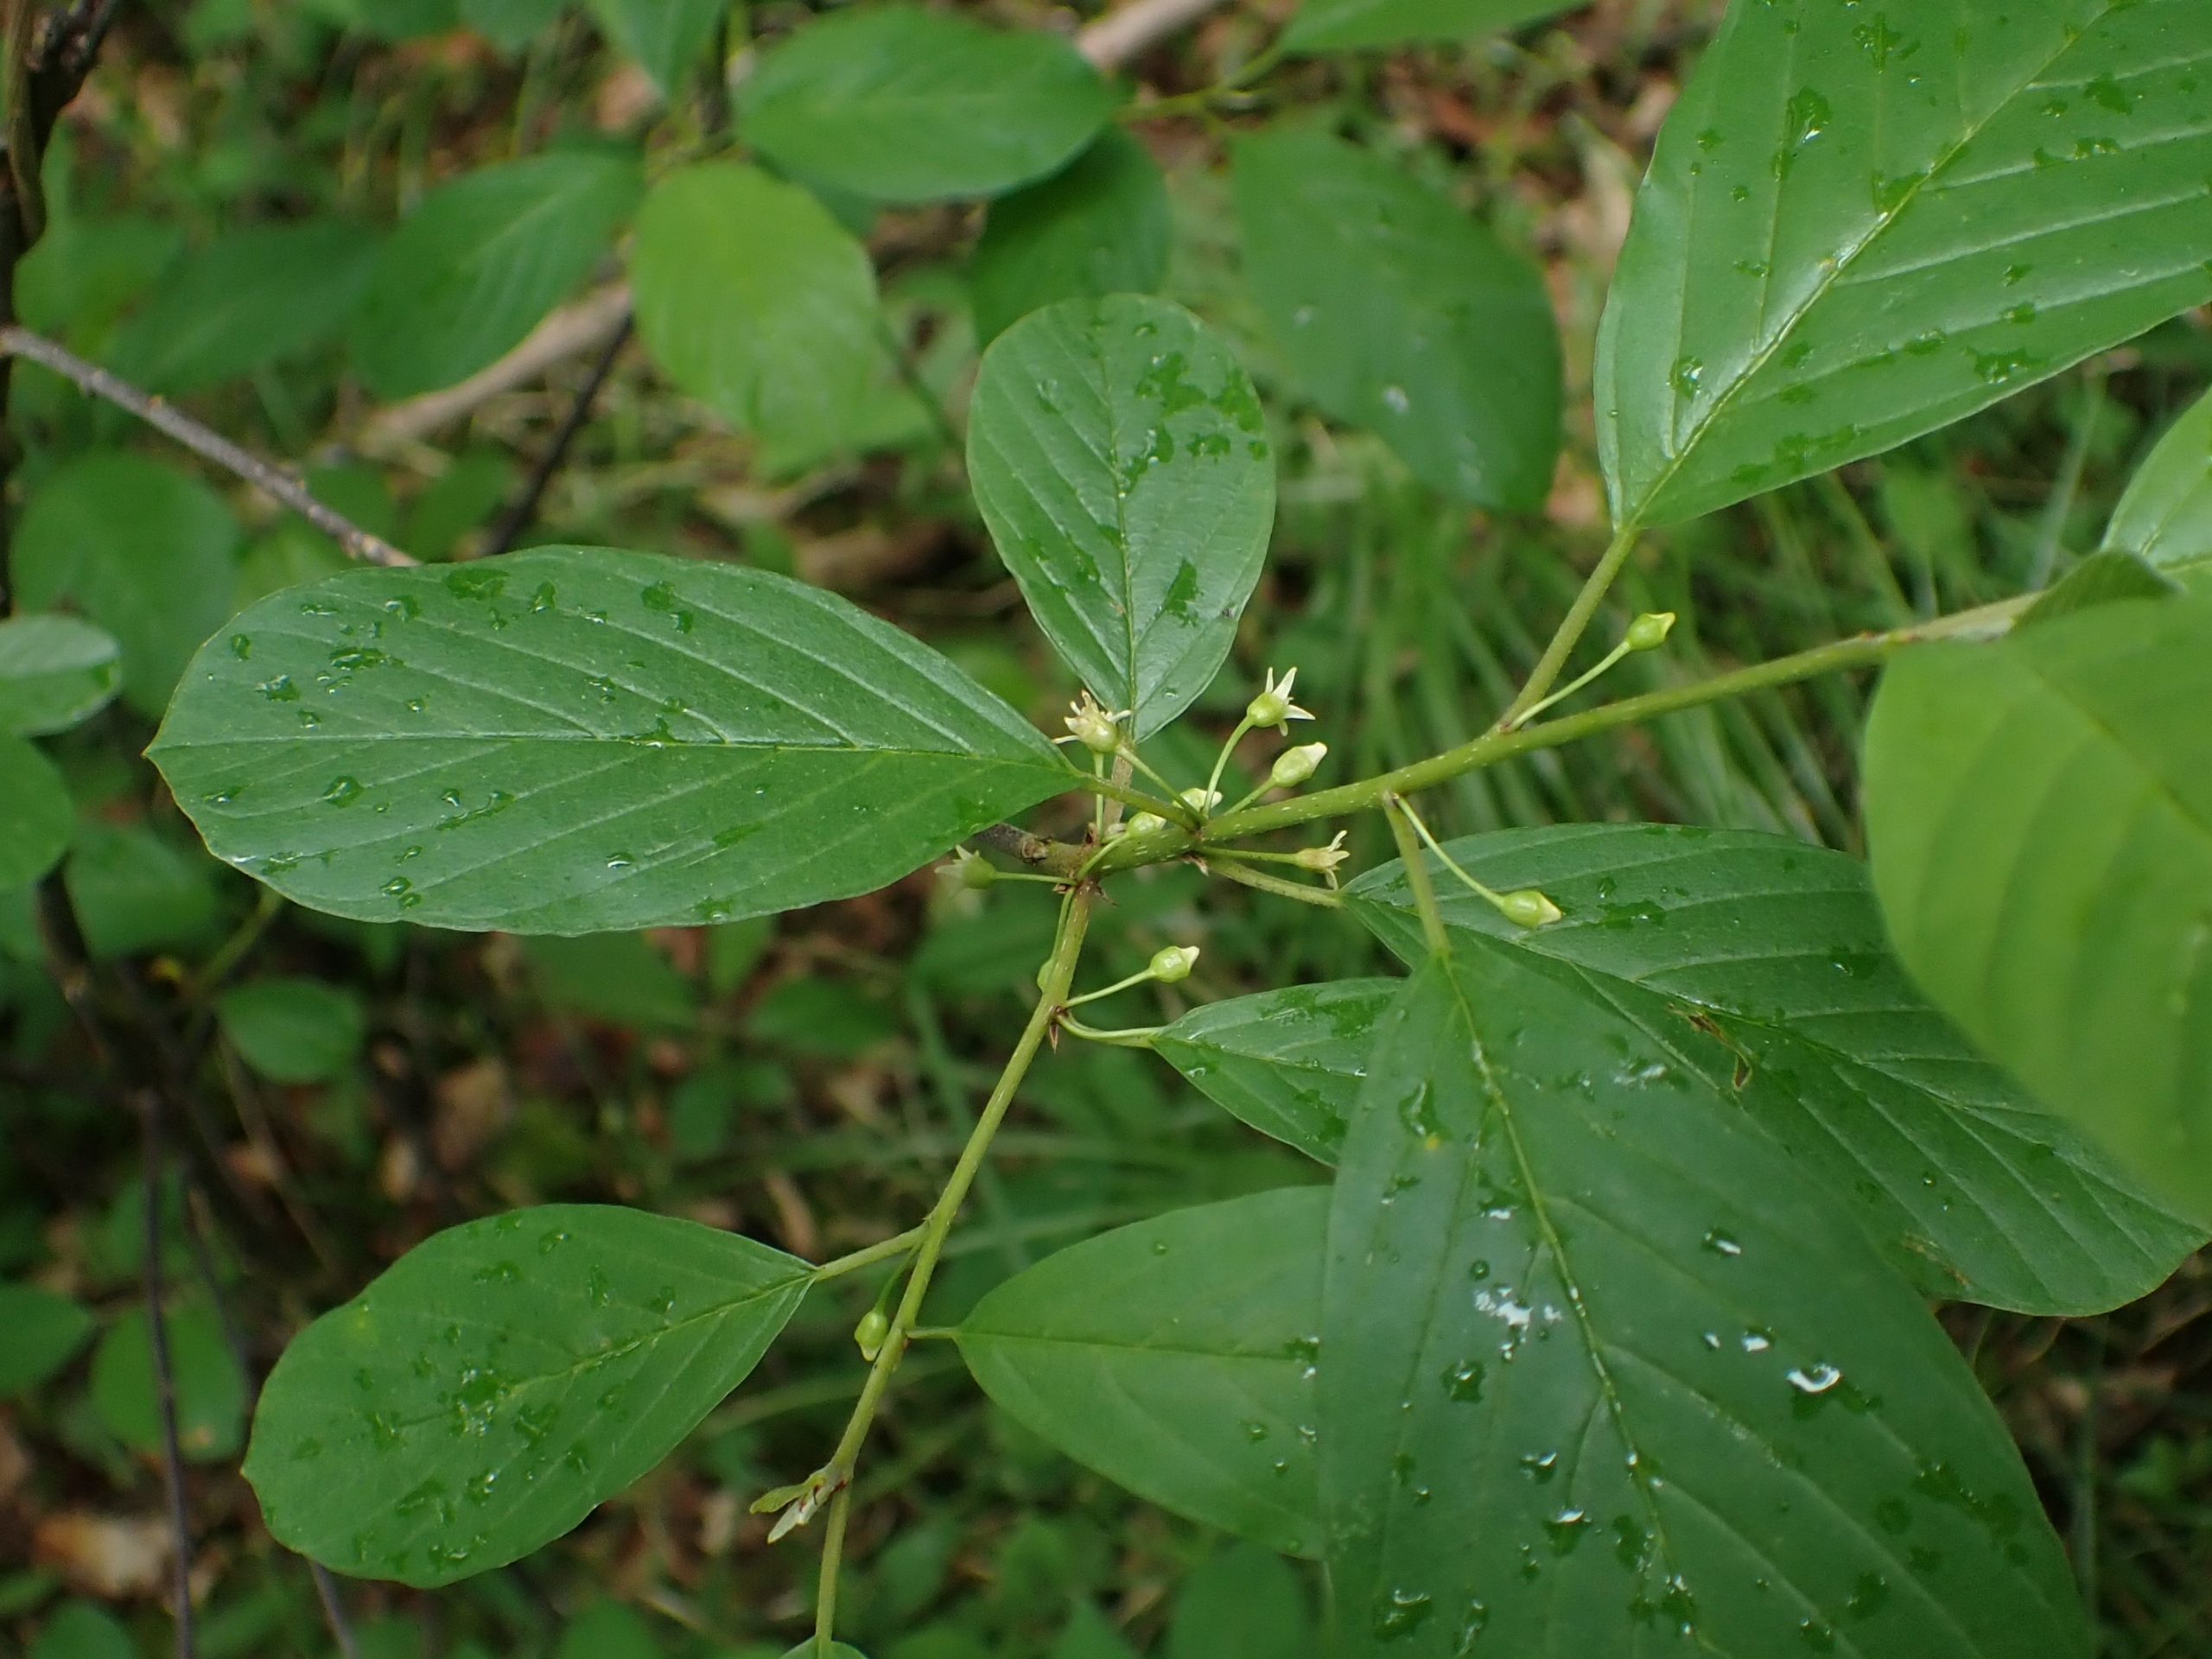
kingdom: Plantae
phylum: Tracheophyta
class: Magnoliopsida
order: Rosales
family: Rhamnaceae
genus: Frangula
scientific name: Frangula alnus
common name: Tørst
